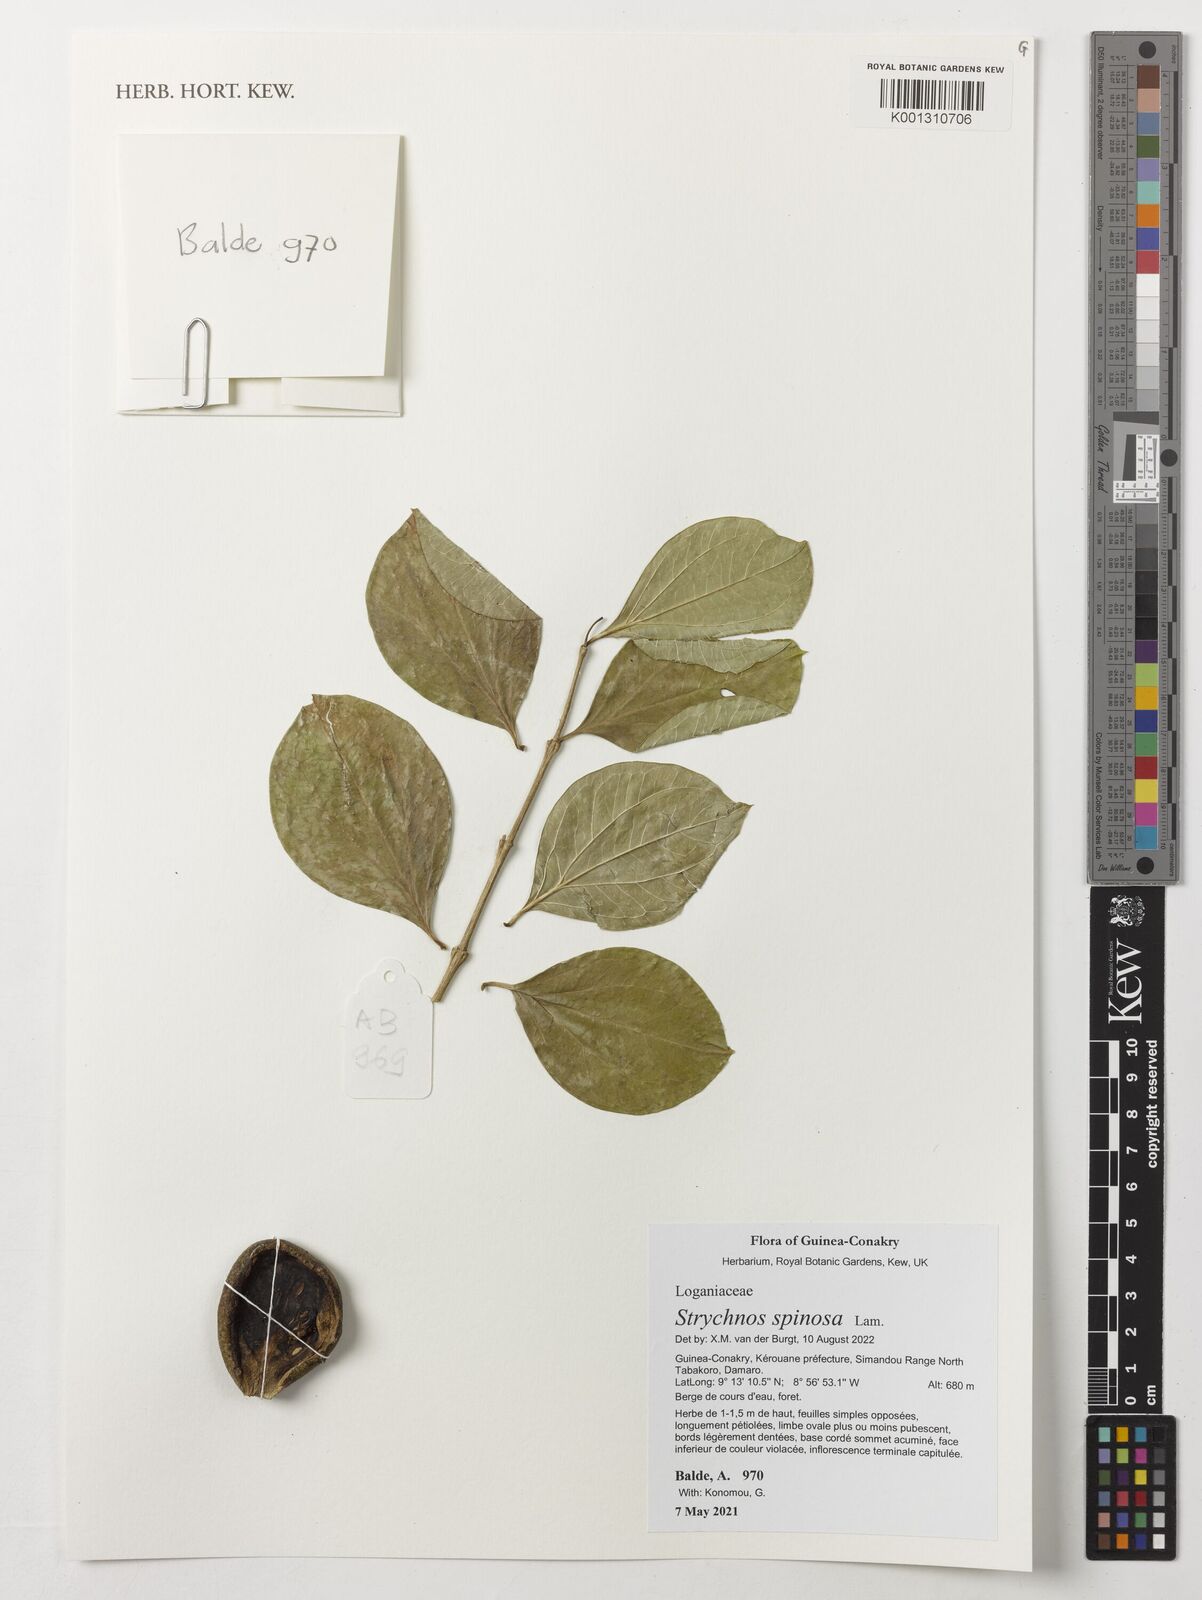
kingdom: Plantae
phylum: Tracheophyta
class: Magnoliopsida
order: Gentianales
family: Loganiaceae
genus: Strychnos
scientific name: Strychnos spinosa
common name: Natal orange
